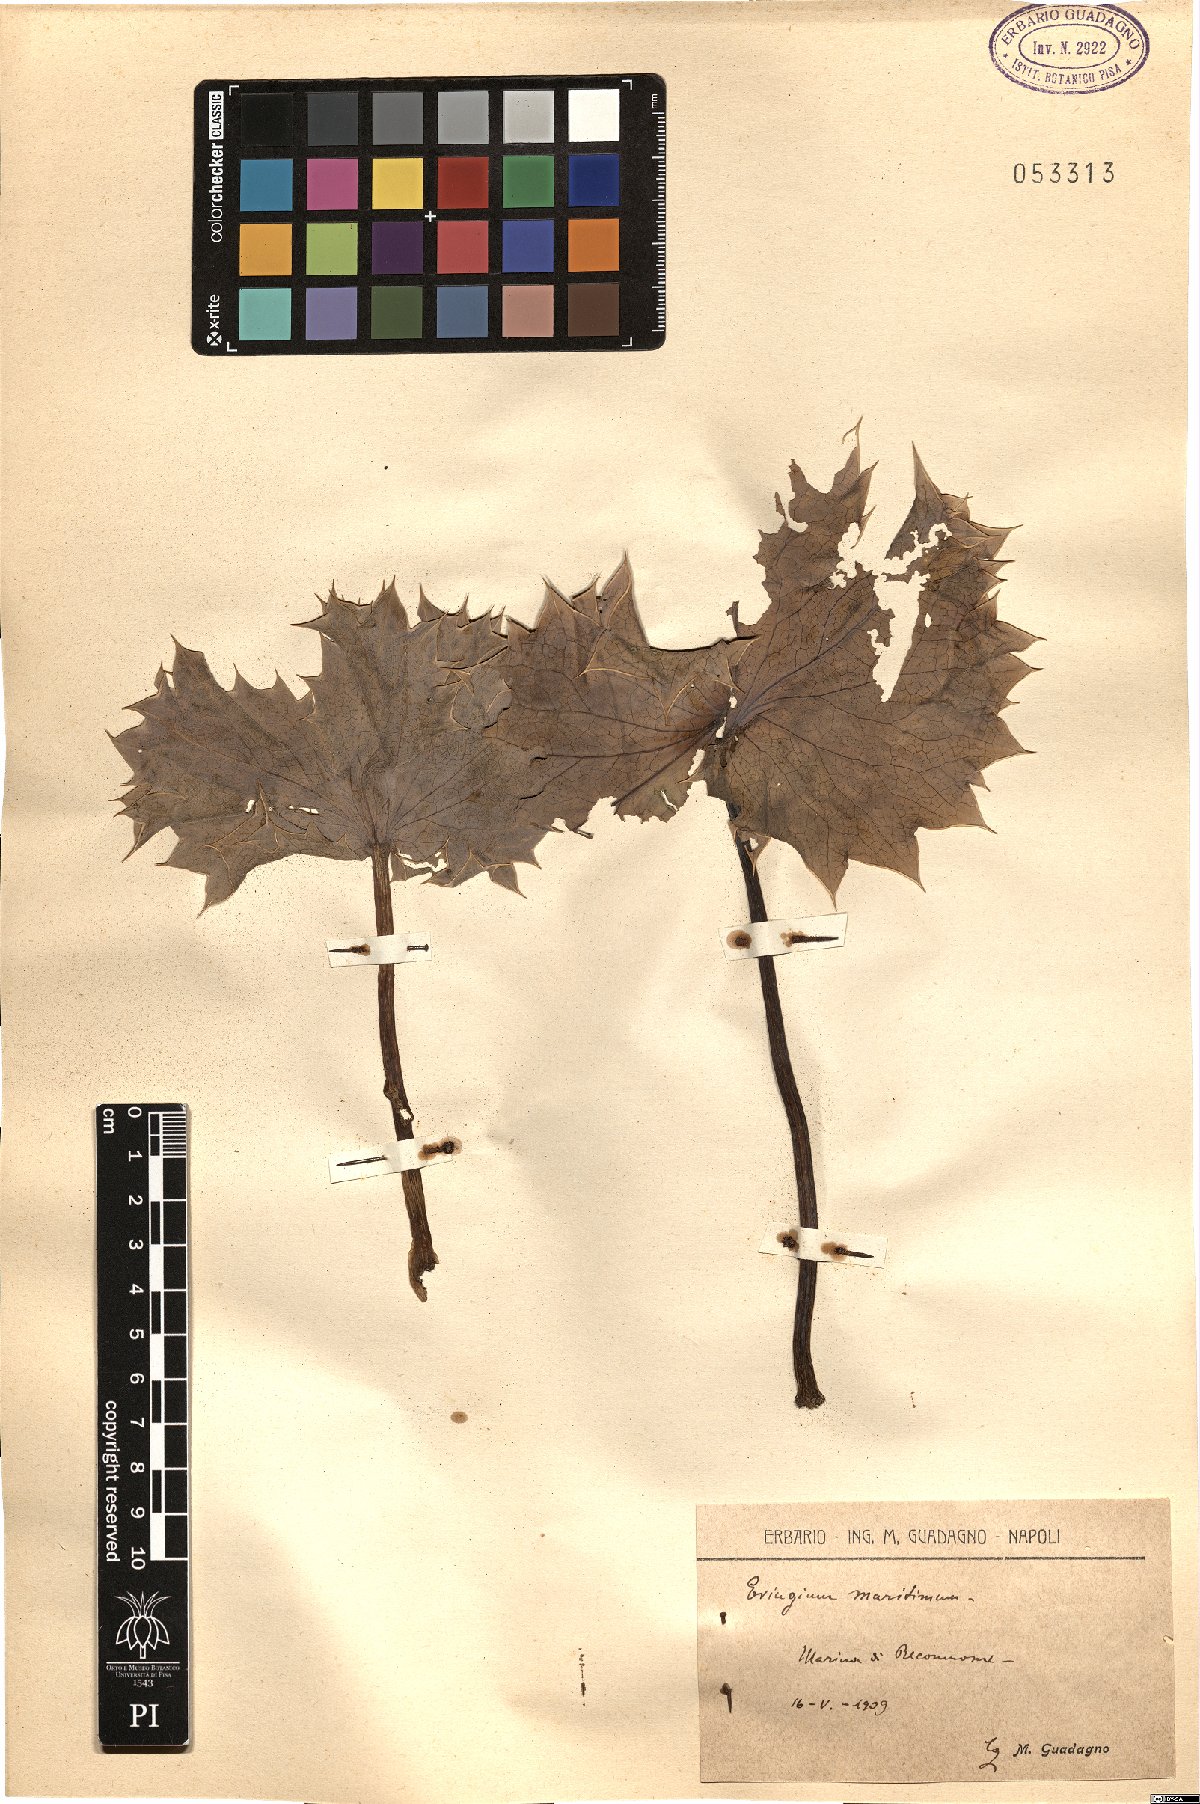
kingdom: Plantae
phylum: Tracheophyta
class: Magnoliopsida
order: Apiales
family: Apiaceae
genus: Eryngium
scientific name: Eryngium maritimum
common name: Sea-holly
